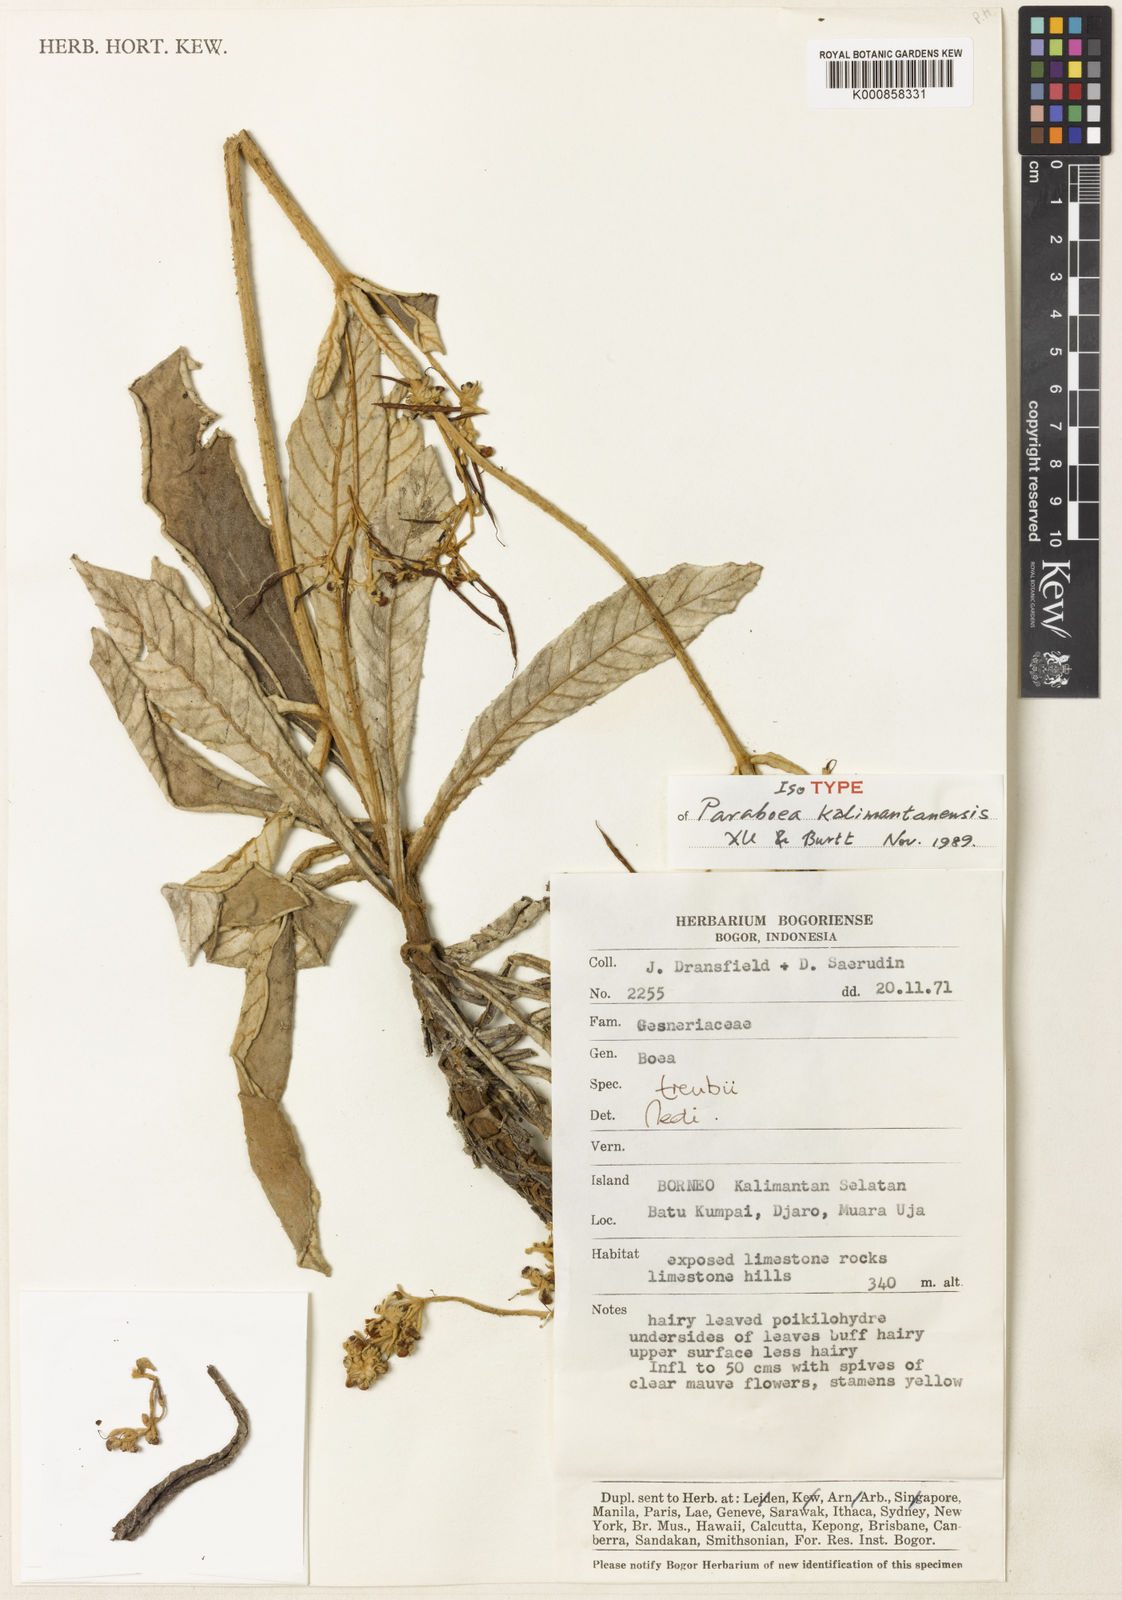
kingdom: Plantae
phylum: Tracheophyta
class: Magnoliopsida
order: Lamiales
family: Gesneriaceae
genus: Paraboea
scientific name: Paraboea kalimantanensis
